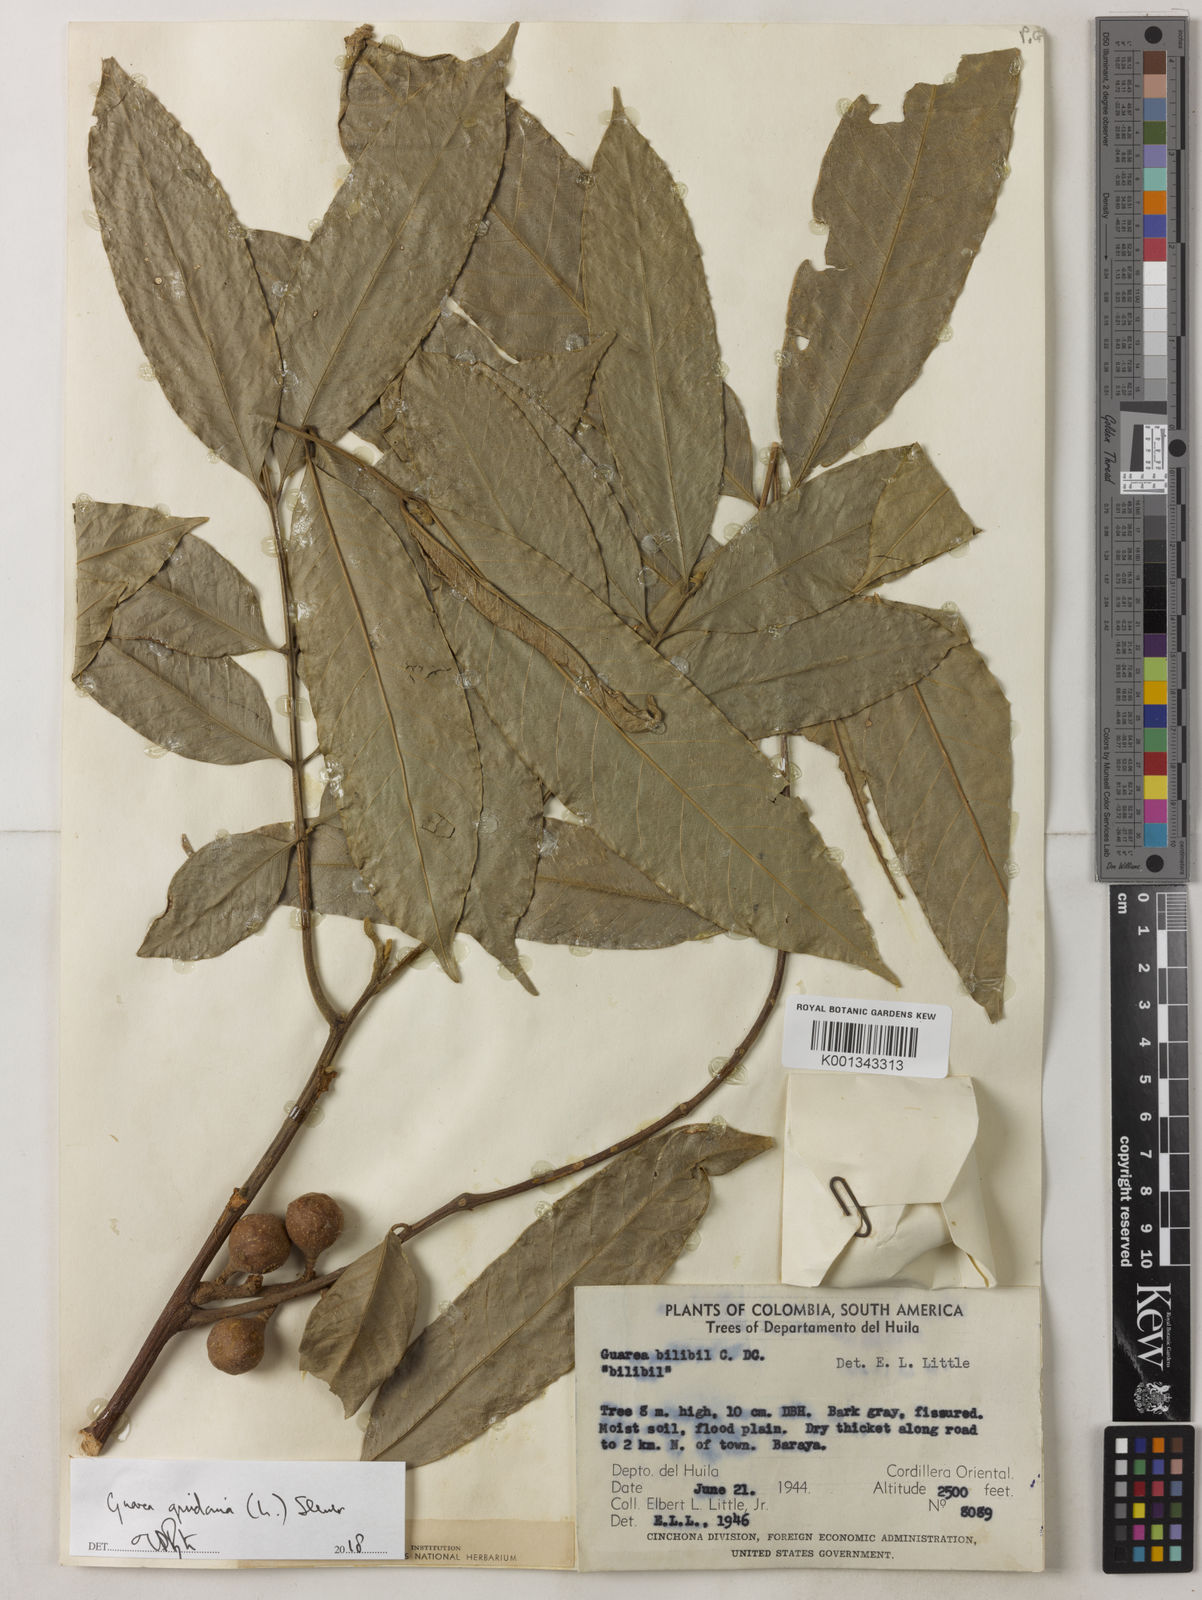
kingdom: Plantae
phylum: Tracheophyta
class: Magnoliopsida
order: Sapindales
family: Meliaceae
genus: Guarea
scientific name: Guarea guidonia
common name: American muskwood
